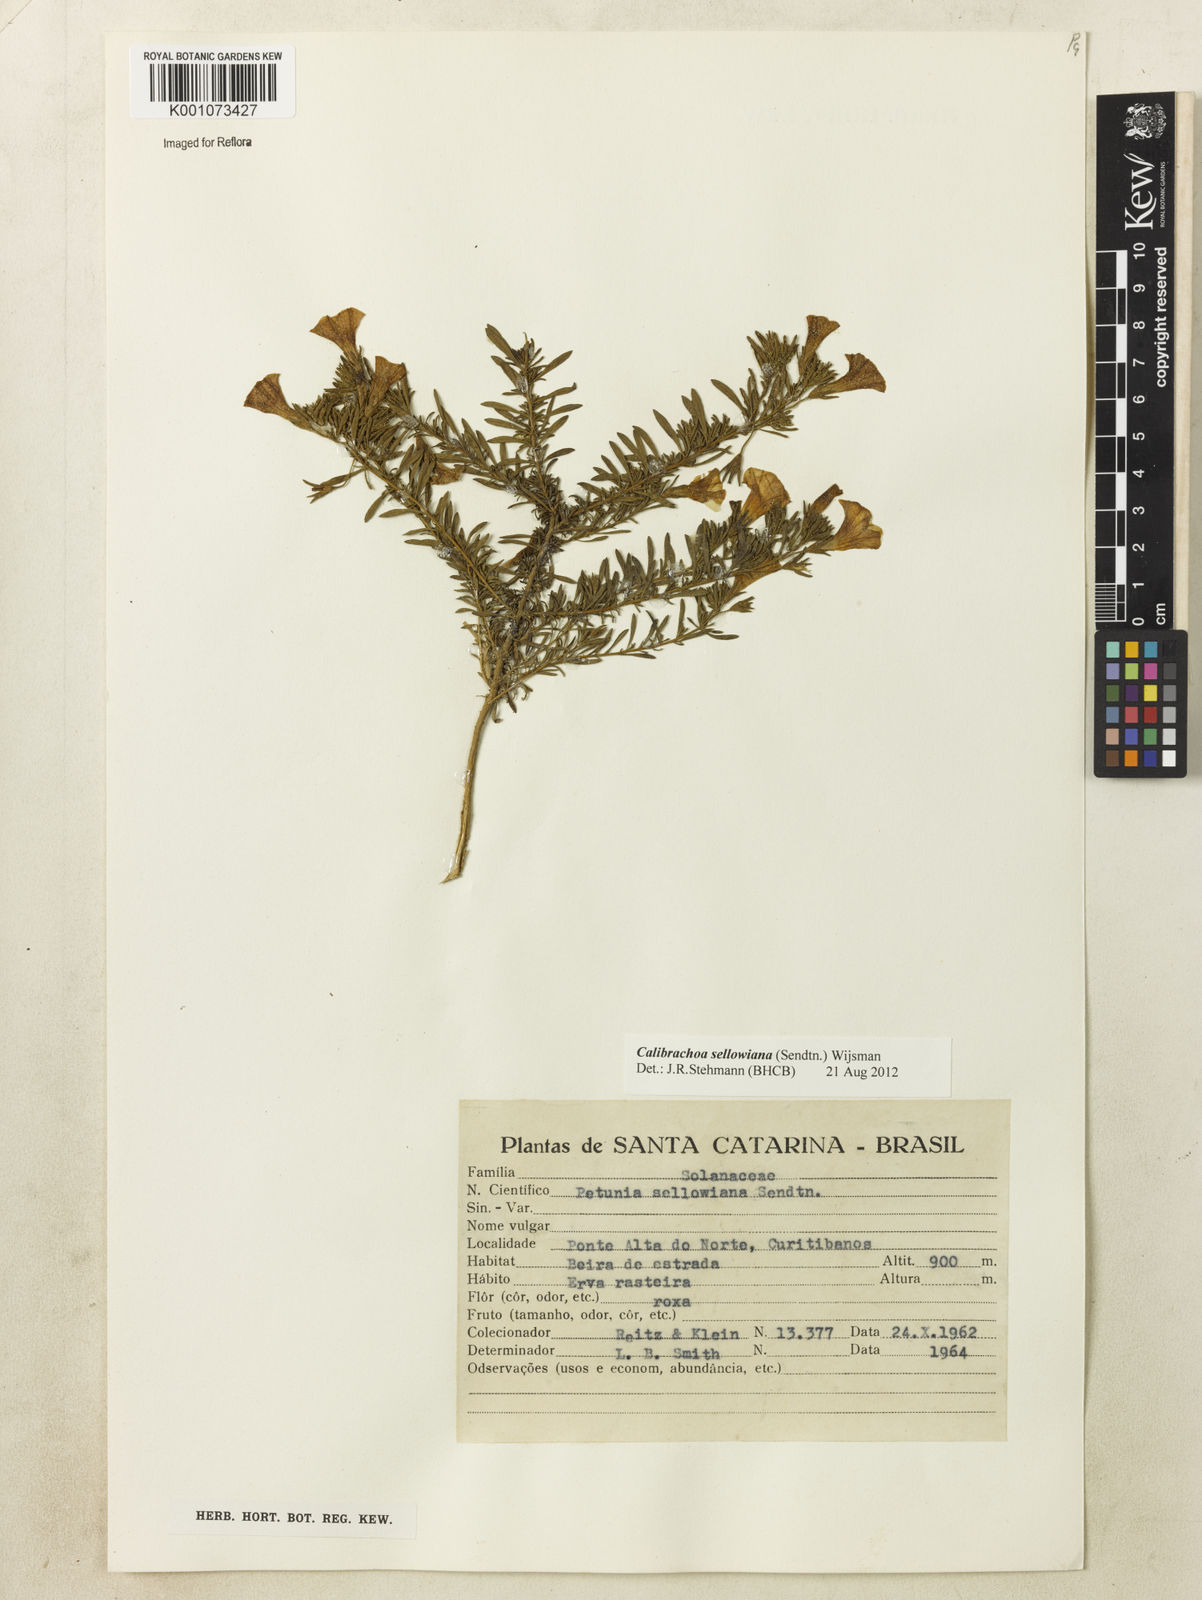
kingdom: Plantae
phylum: Tracheophyta
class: Magnoliopsida
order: Solanales
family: Solanaceae
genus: Calibrachoa
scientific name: Calibrachoa sellowiana
